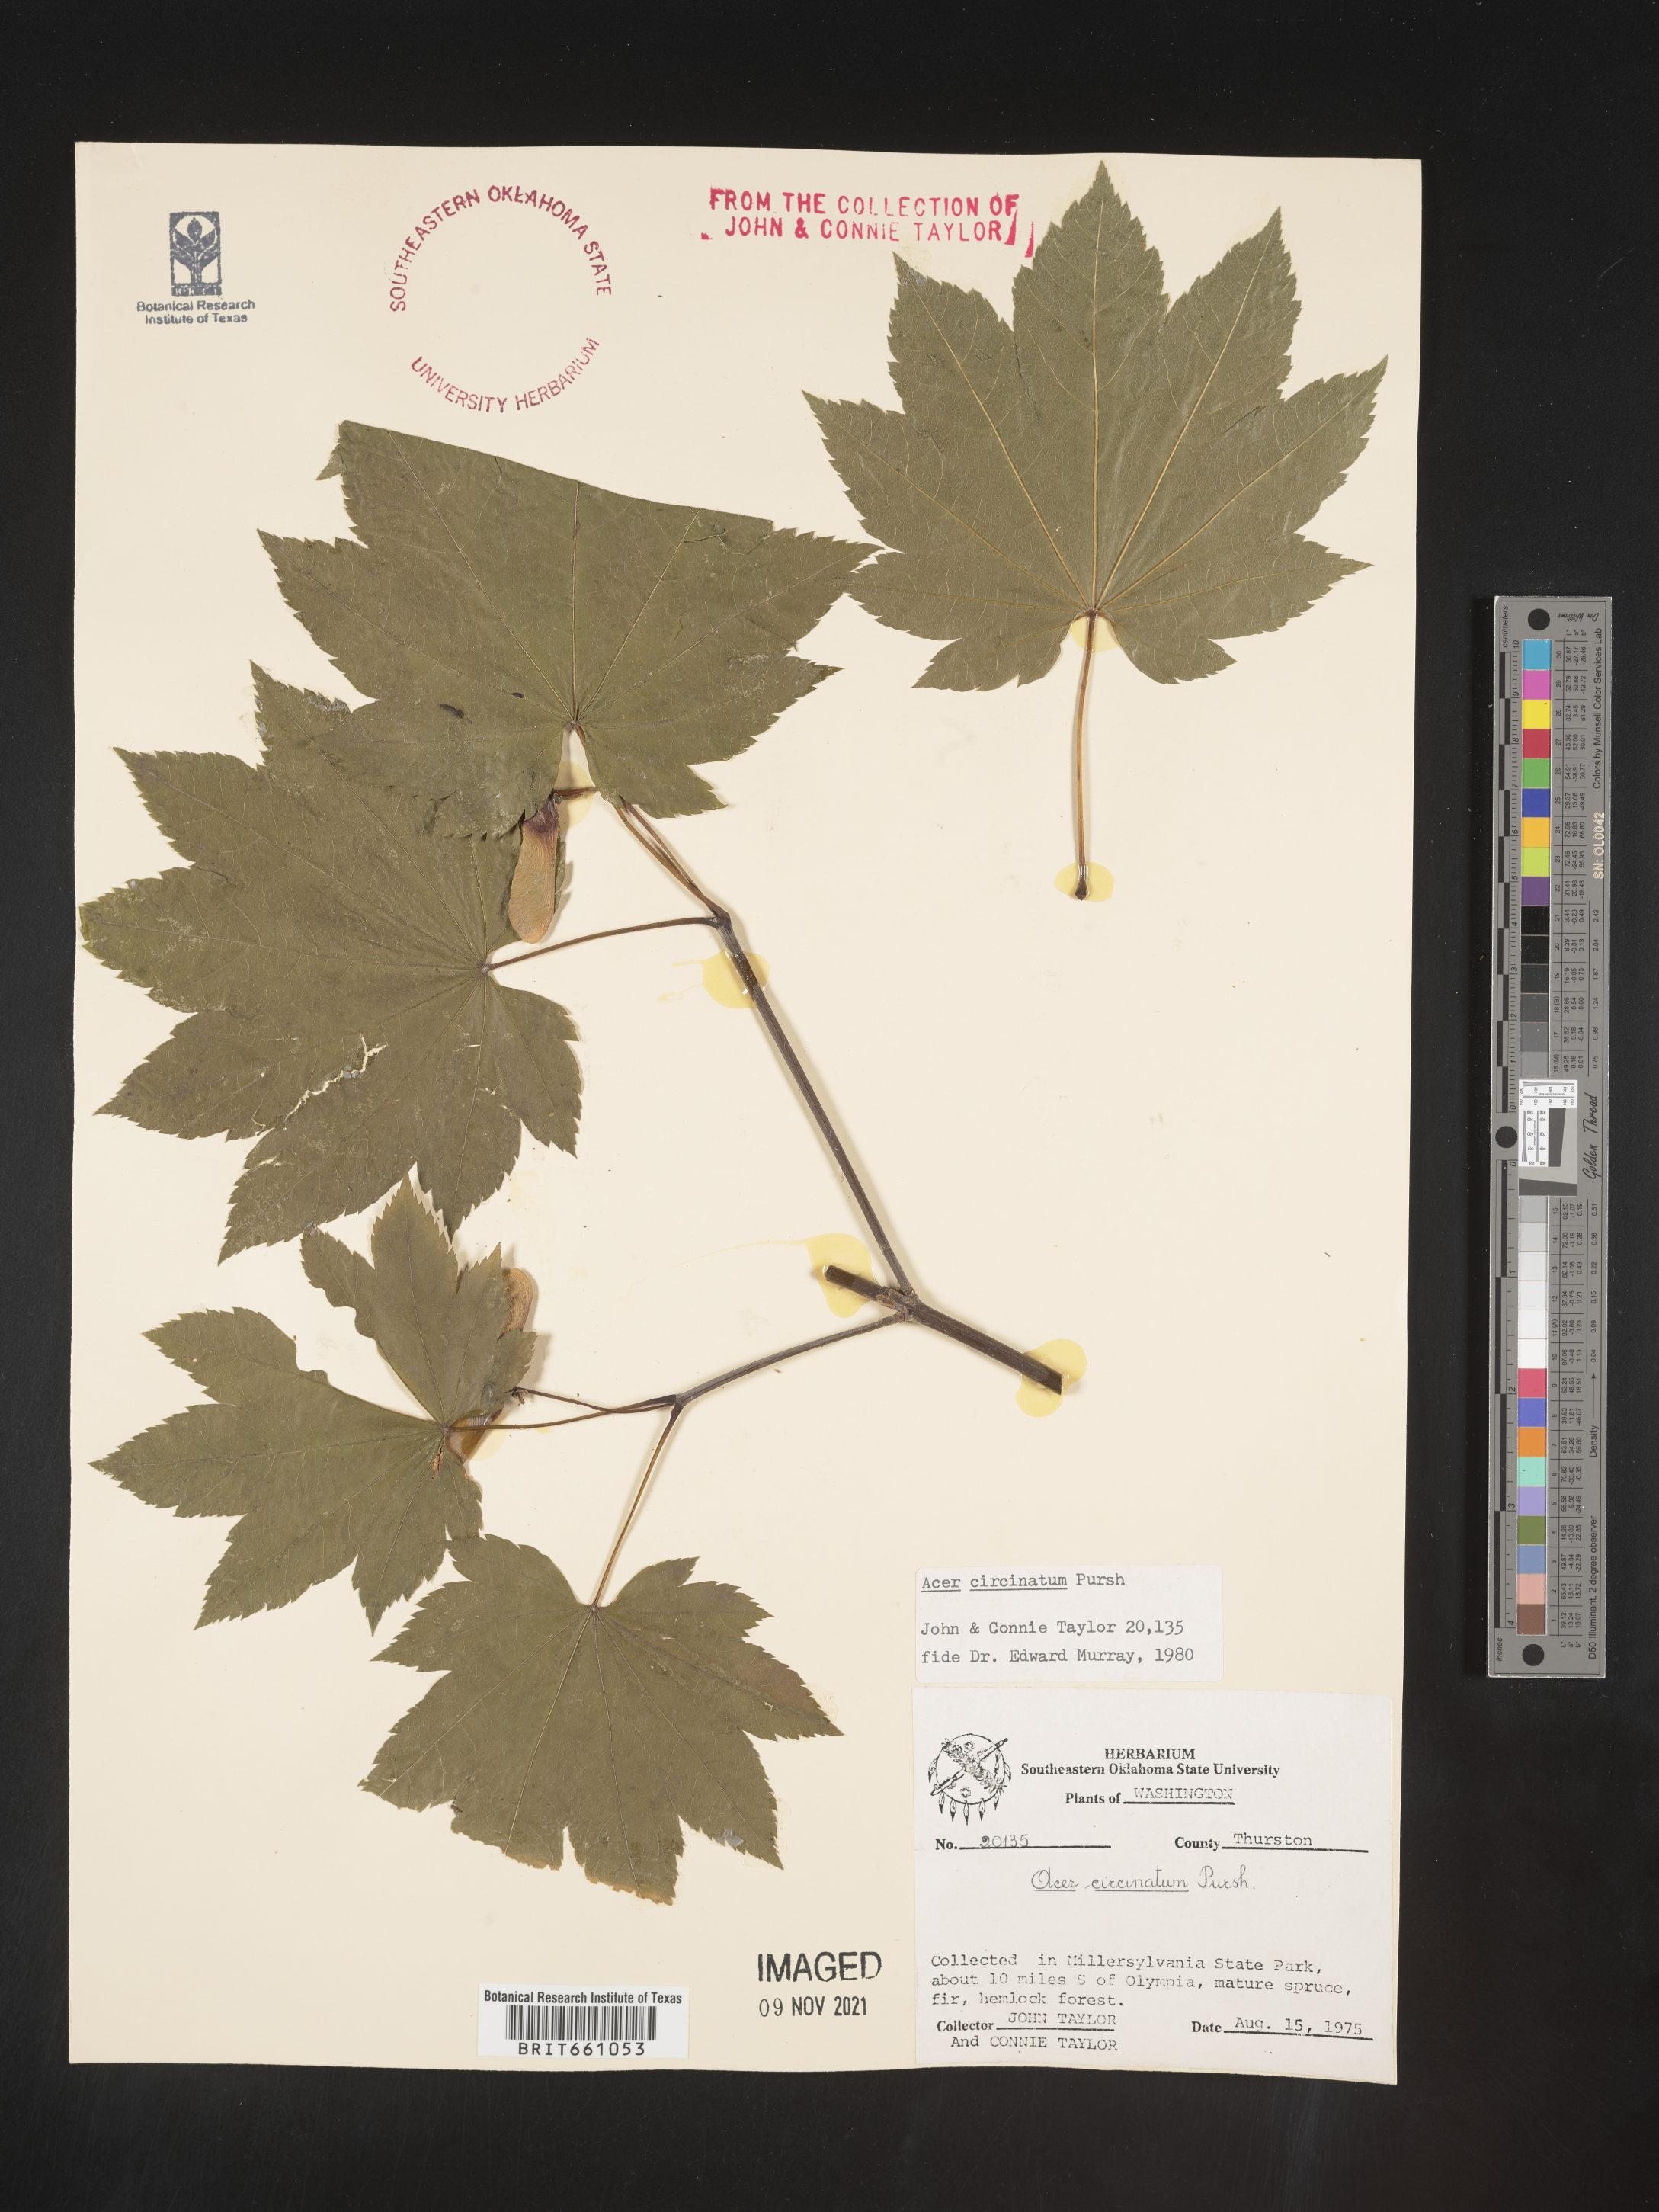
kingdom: Plantae
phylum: Tracheophyta
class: Magnoliopsida
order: Sapindales
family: Sapindaceae
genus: Acer
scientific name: Acer circinatum
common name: Vine maple
